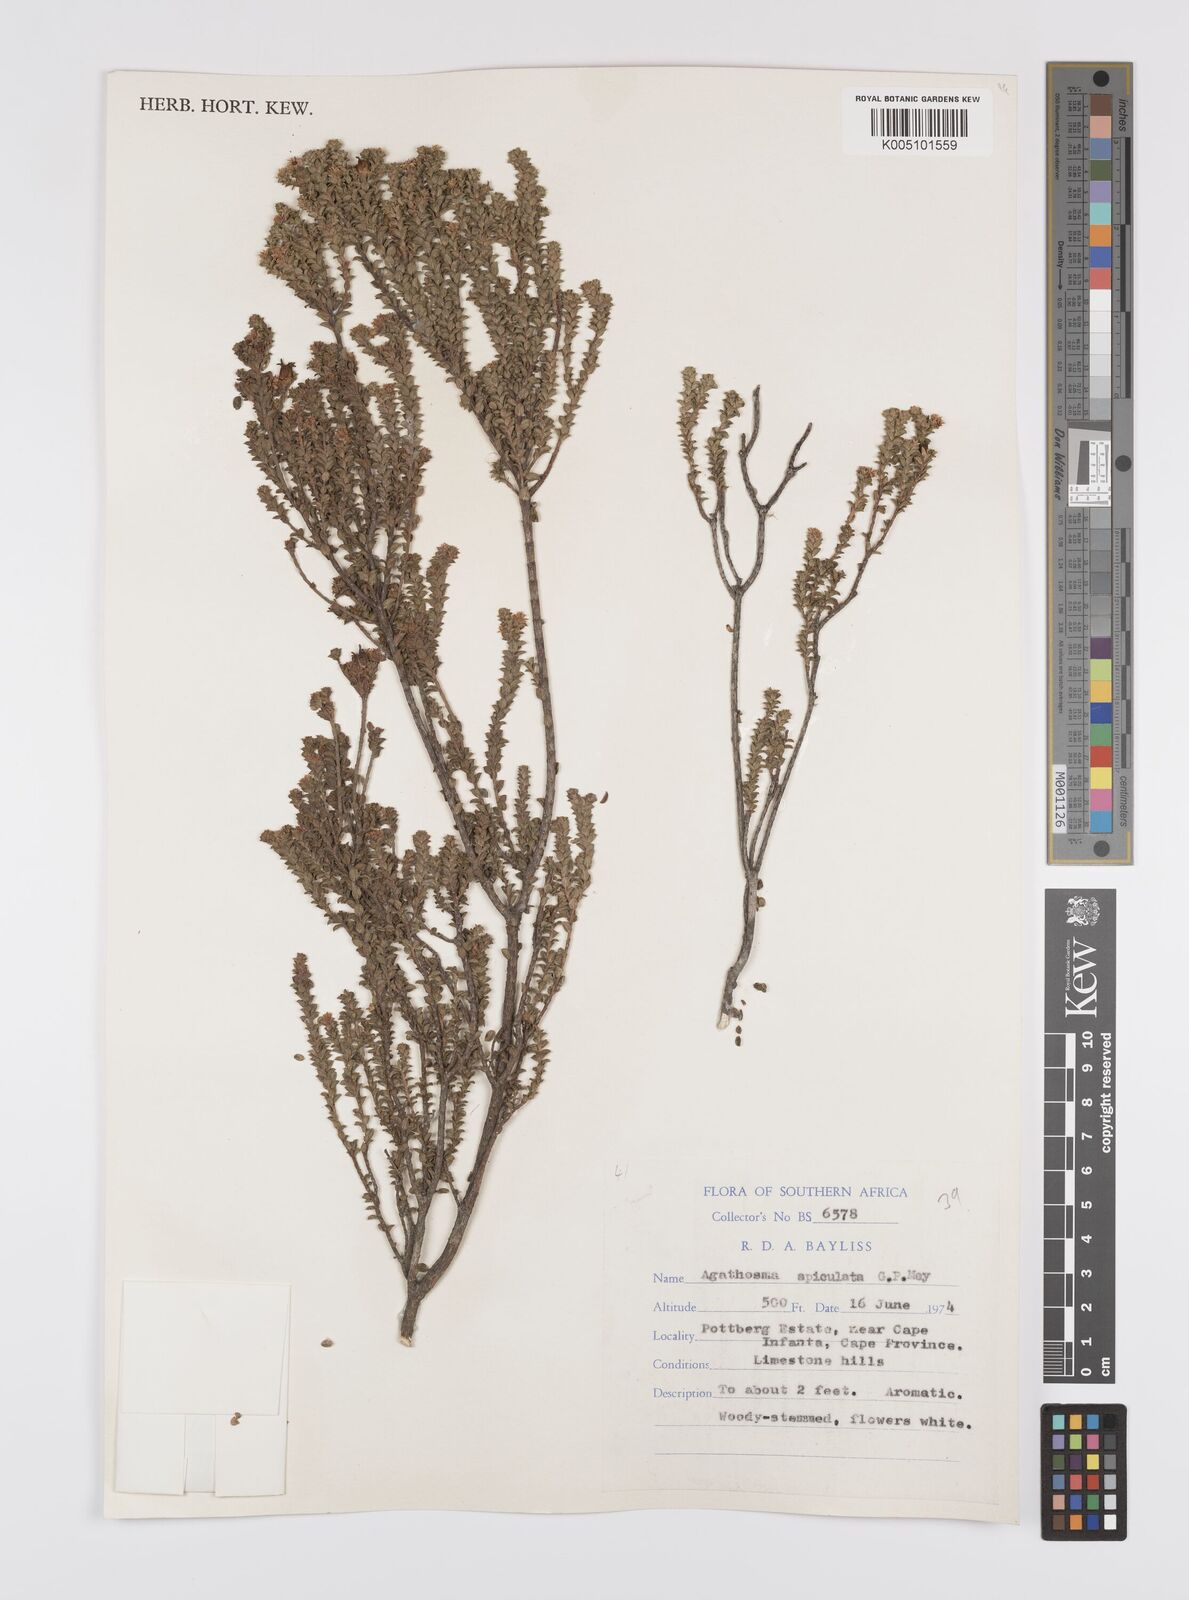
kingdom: Plantae
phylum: Tracheophyta
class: Magnoliopsida
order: Sapindales
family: Rutaceae
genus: Agathosma
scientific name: Agathosma
